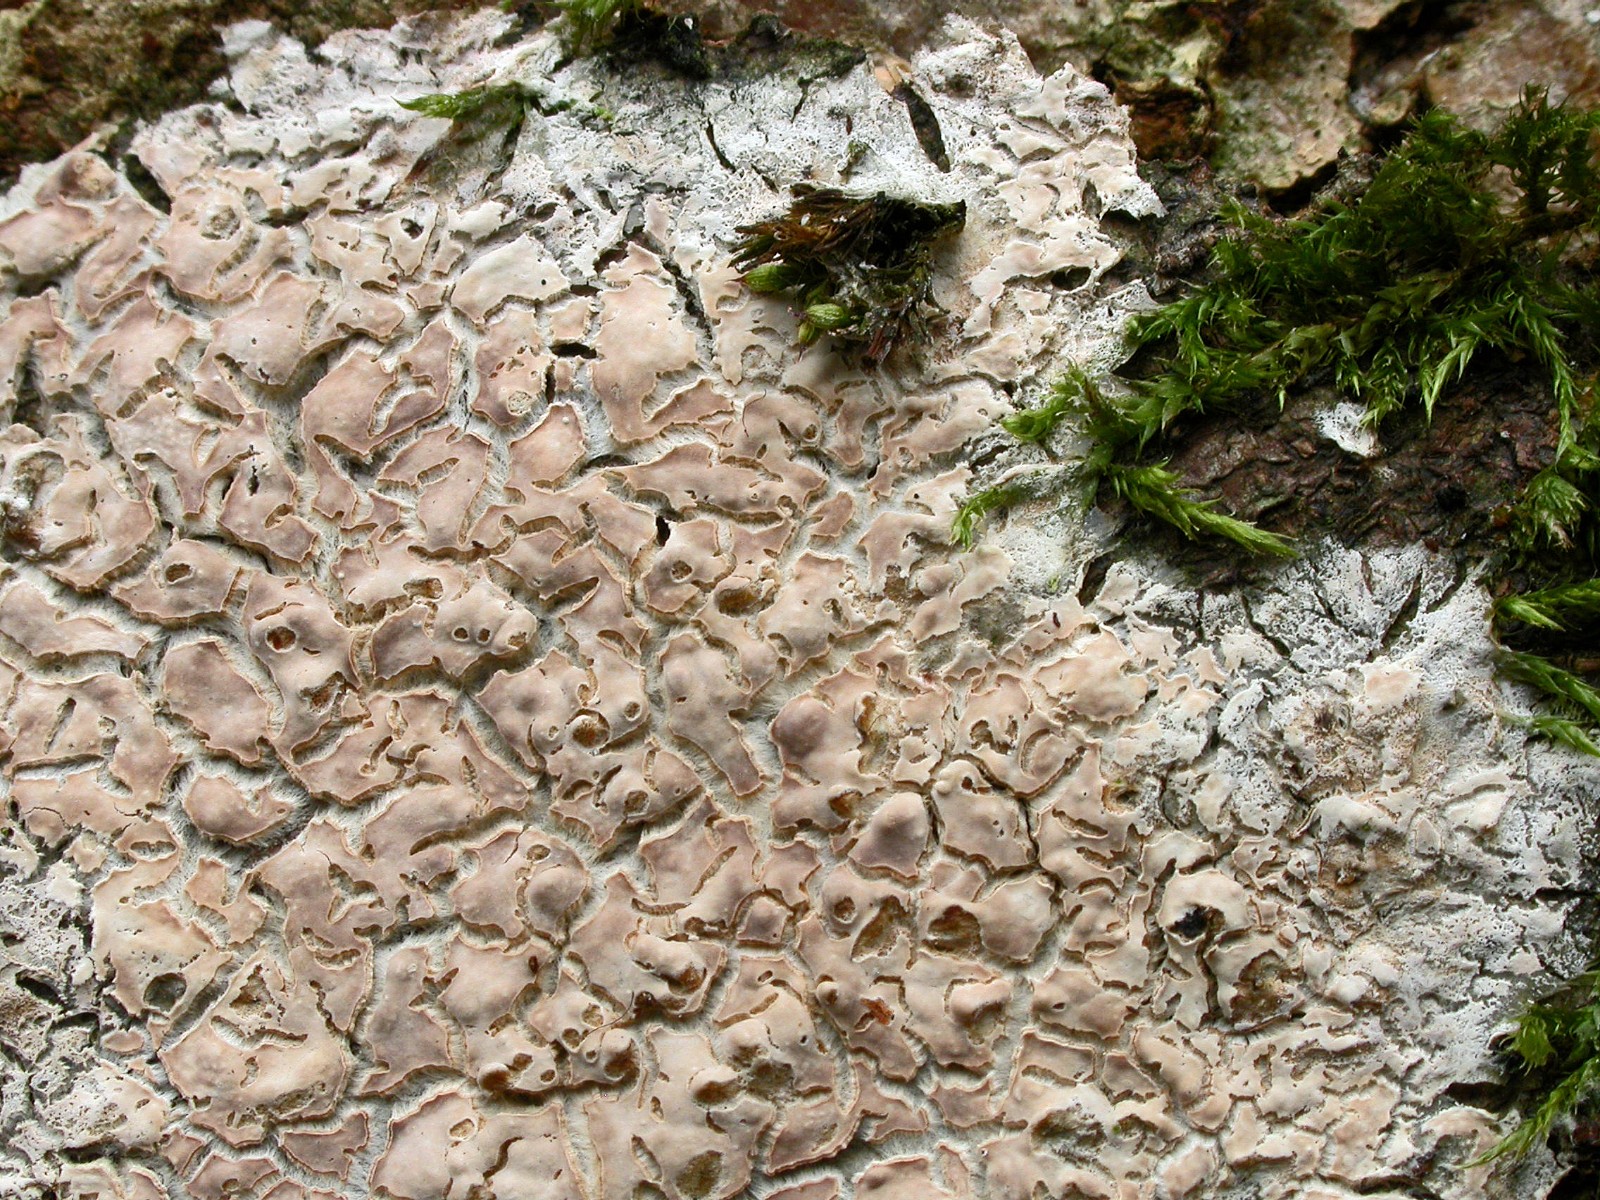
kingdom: Fungi
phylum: Basidiomycota
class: Agaricomycetes
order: Agaricales
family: Physalacriaceae
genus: Cylindrobasidium
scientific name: Cylindrobasidium evolvens
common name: sprækkehinde
